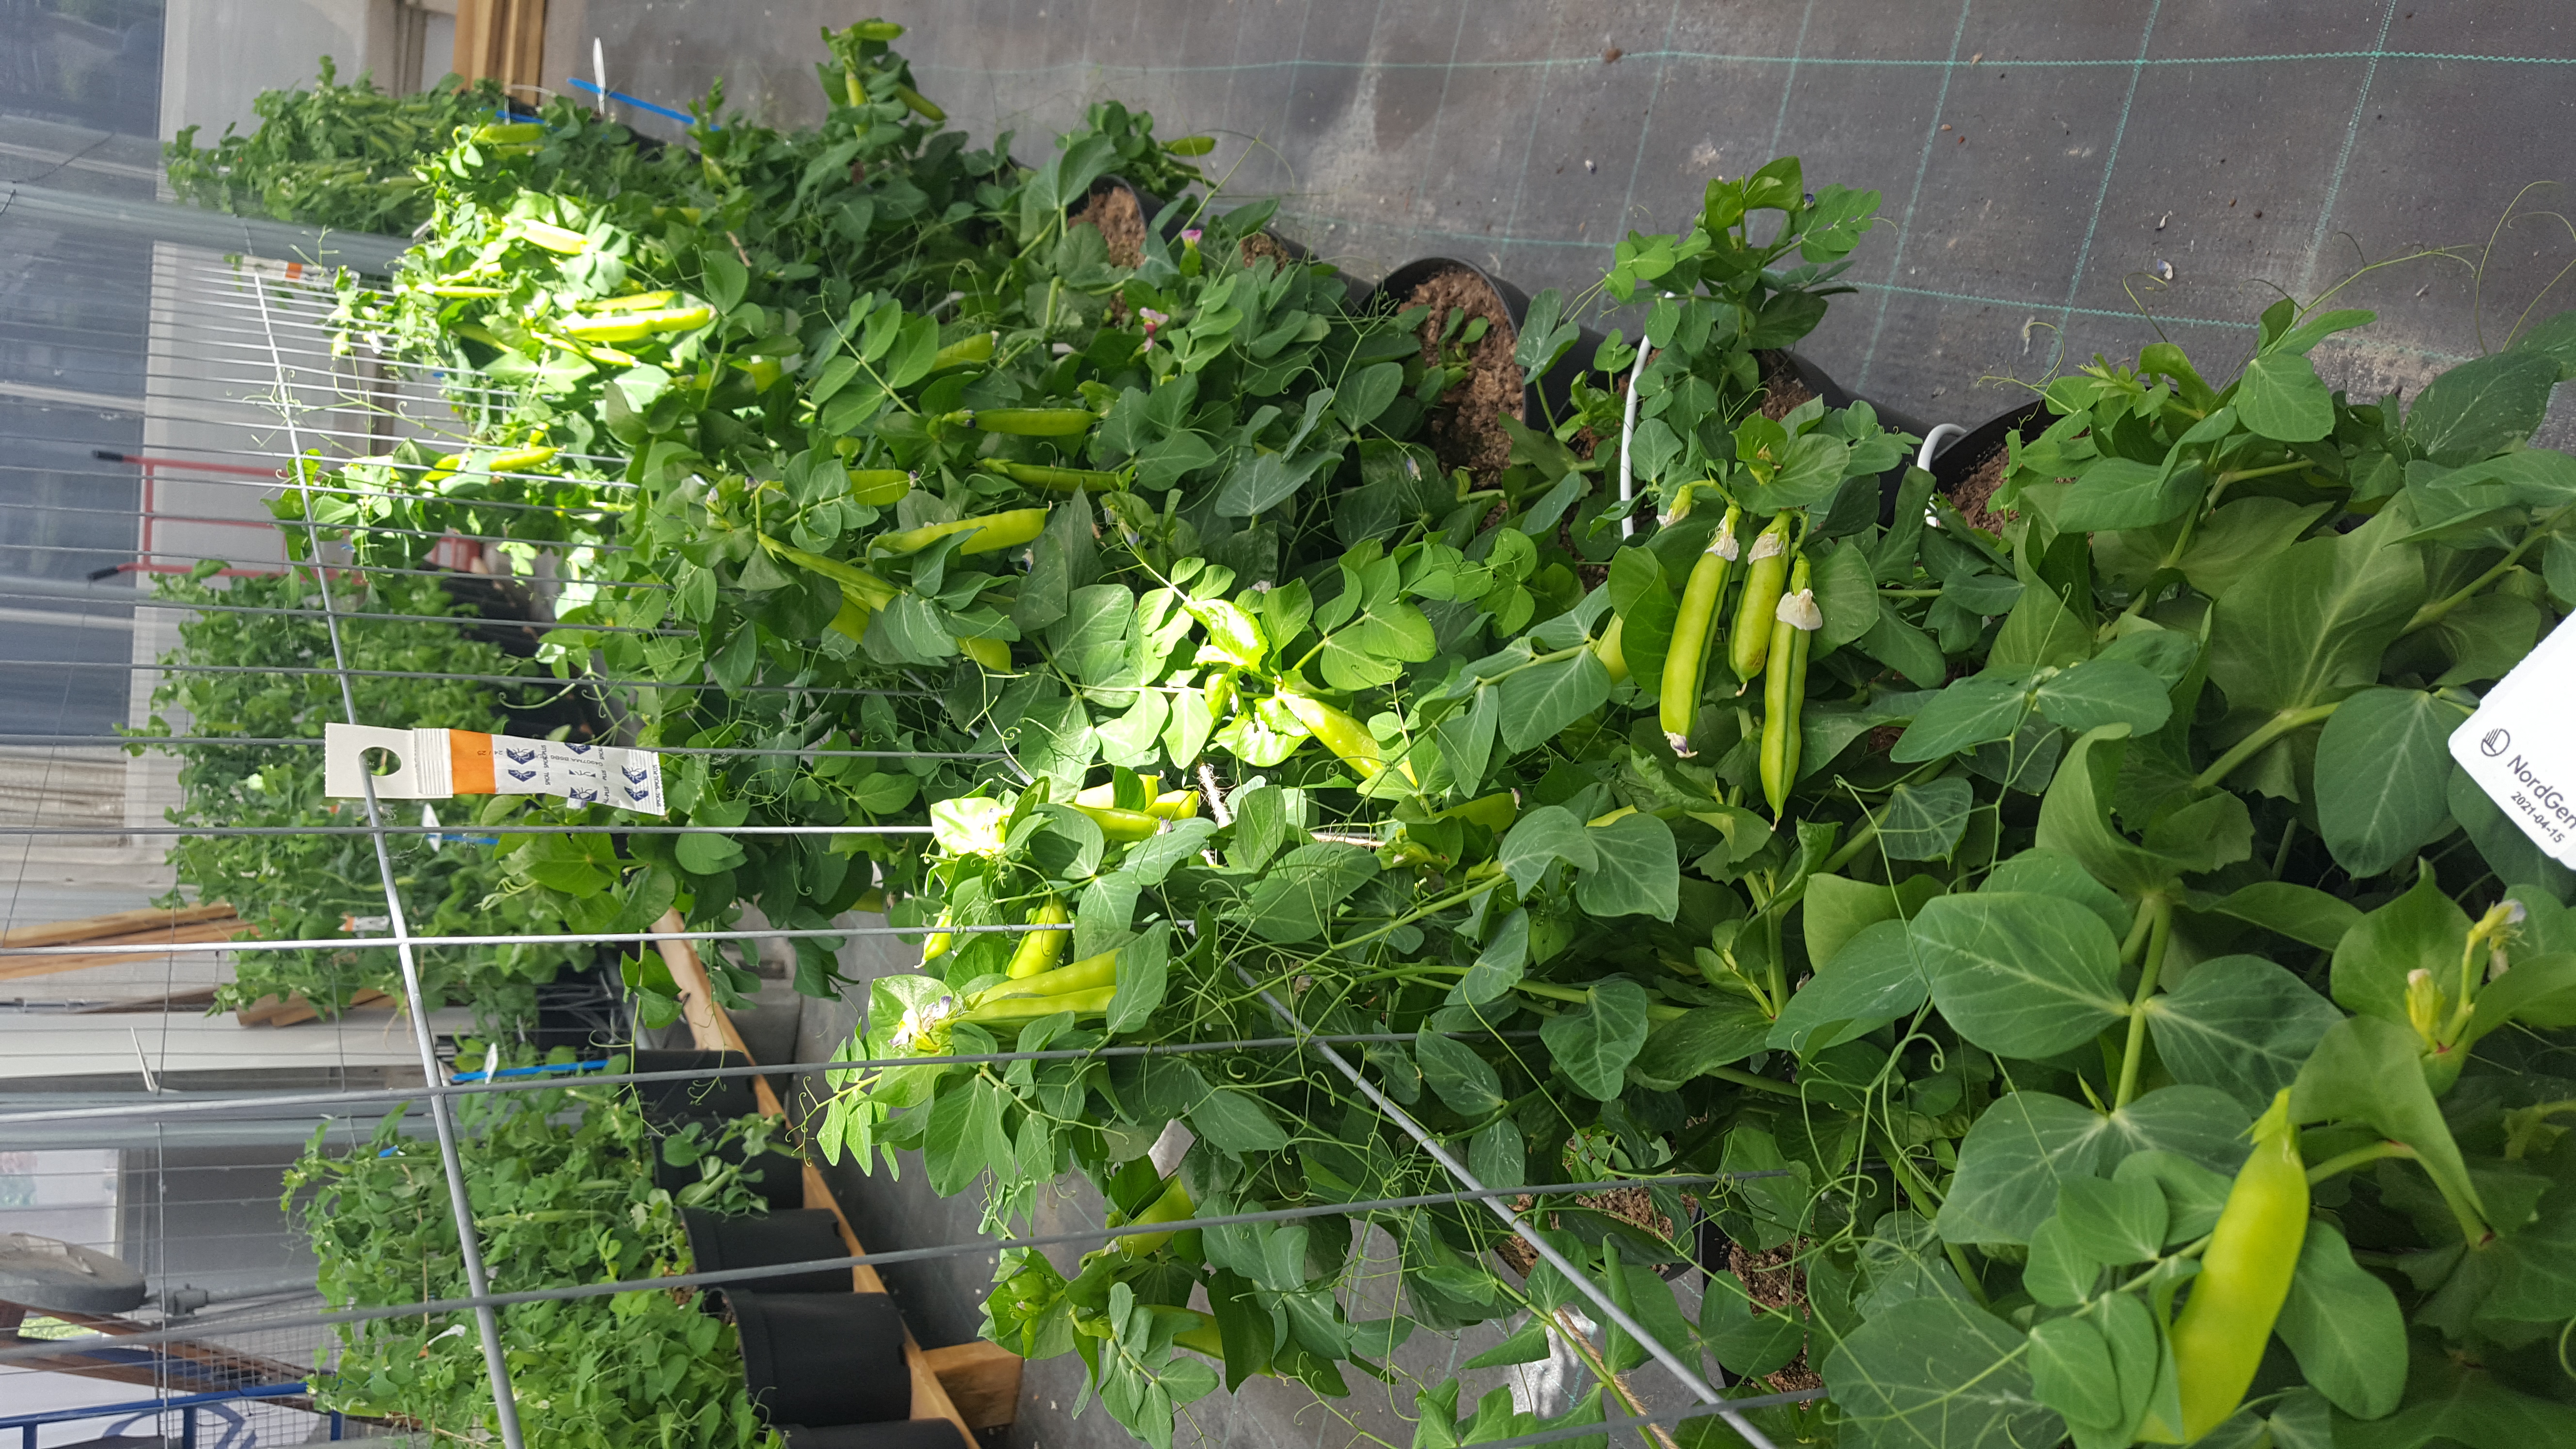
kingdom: Plantae
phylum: Tracheophyta
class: Magnoliopsida
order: Fabales
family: Fabaceae
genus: Lathyrus
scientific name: Lathyrus oleraceus
